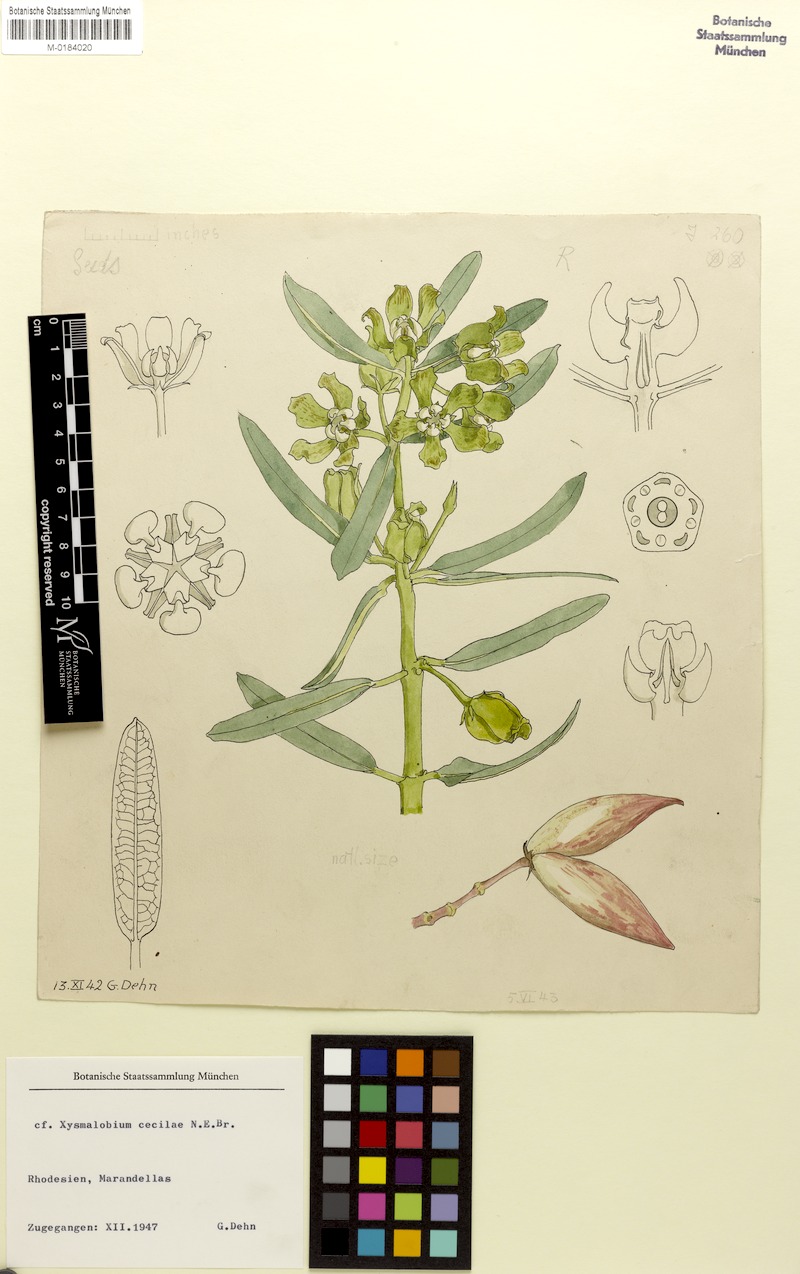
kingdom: Plantae
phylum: Tracheophyta
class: Magnoliopsida
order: Gentianales
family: Apocynaceae
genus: Glossostelma
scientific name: Glossostelma ceciliae
